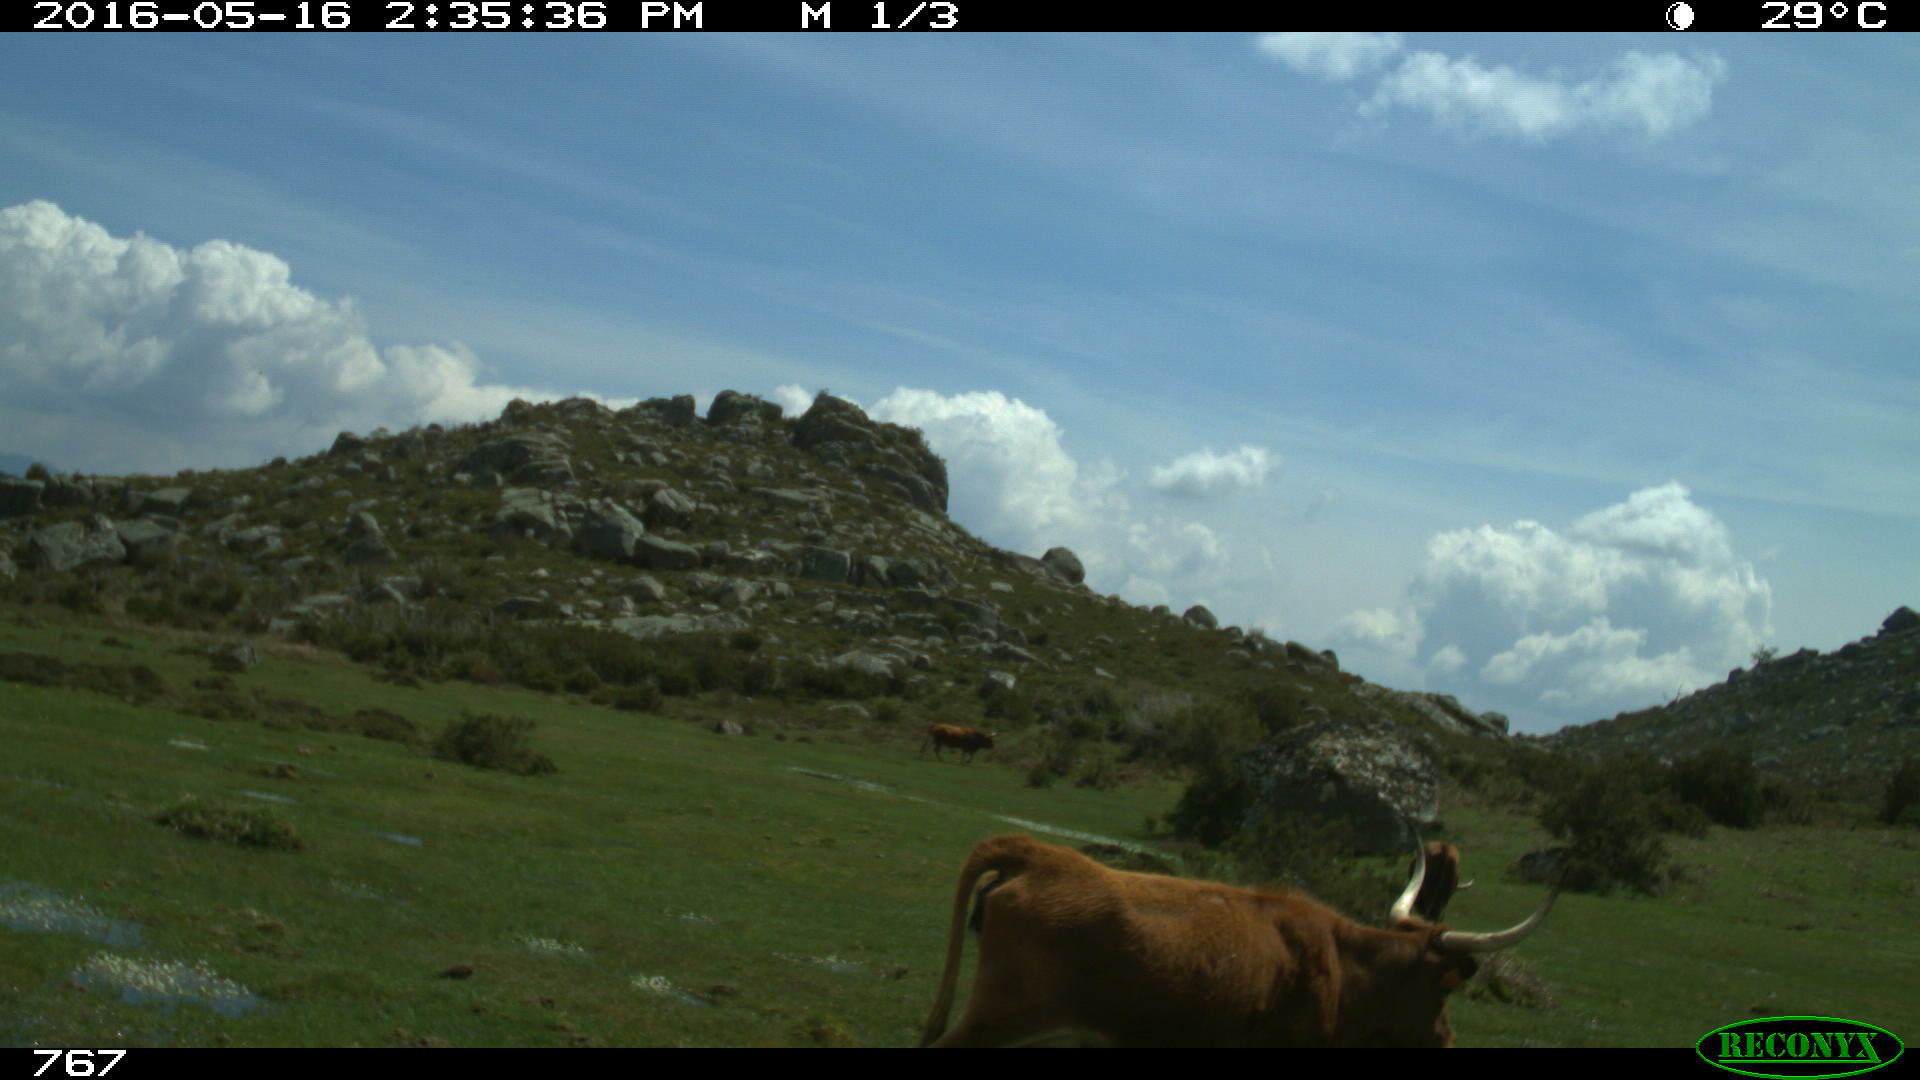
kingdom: Animalia
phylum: Chordata
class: Mammalia
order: Artiodactyla
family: Bovidae
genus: Bos
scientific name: Bos taurus
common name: Domesticated cattle
